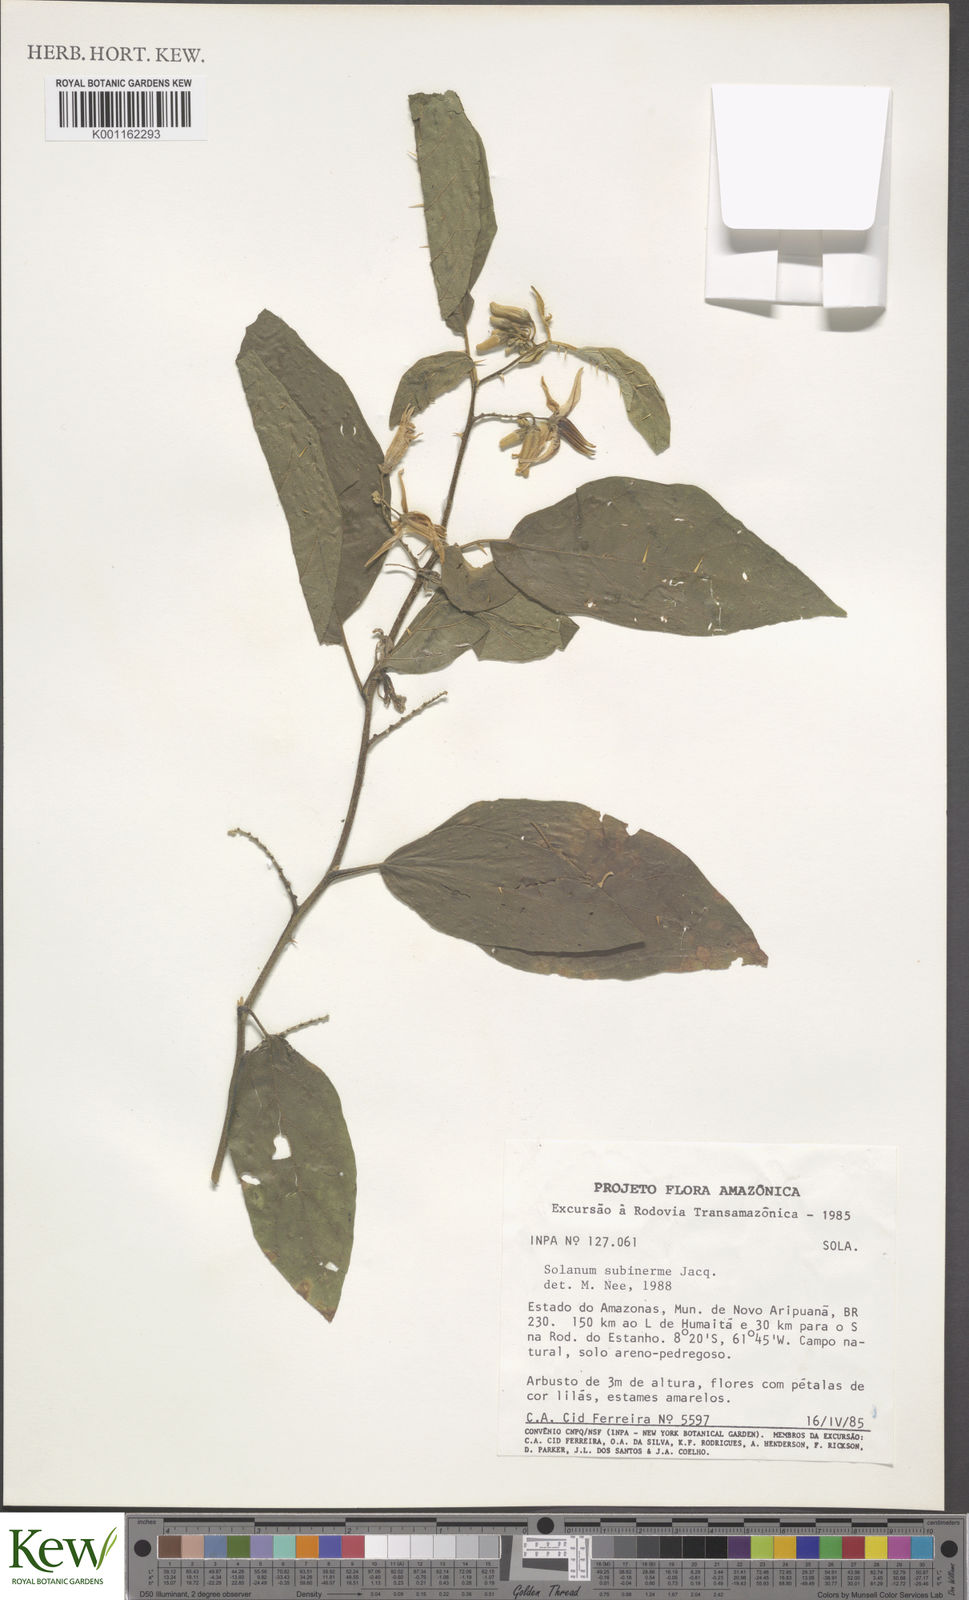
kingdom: Plantae
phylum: Tracheophyta
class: Magnoliopsida
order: Solanales
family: Solanaceae
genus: Solanum
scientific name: Solanum subinerme
